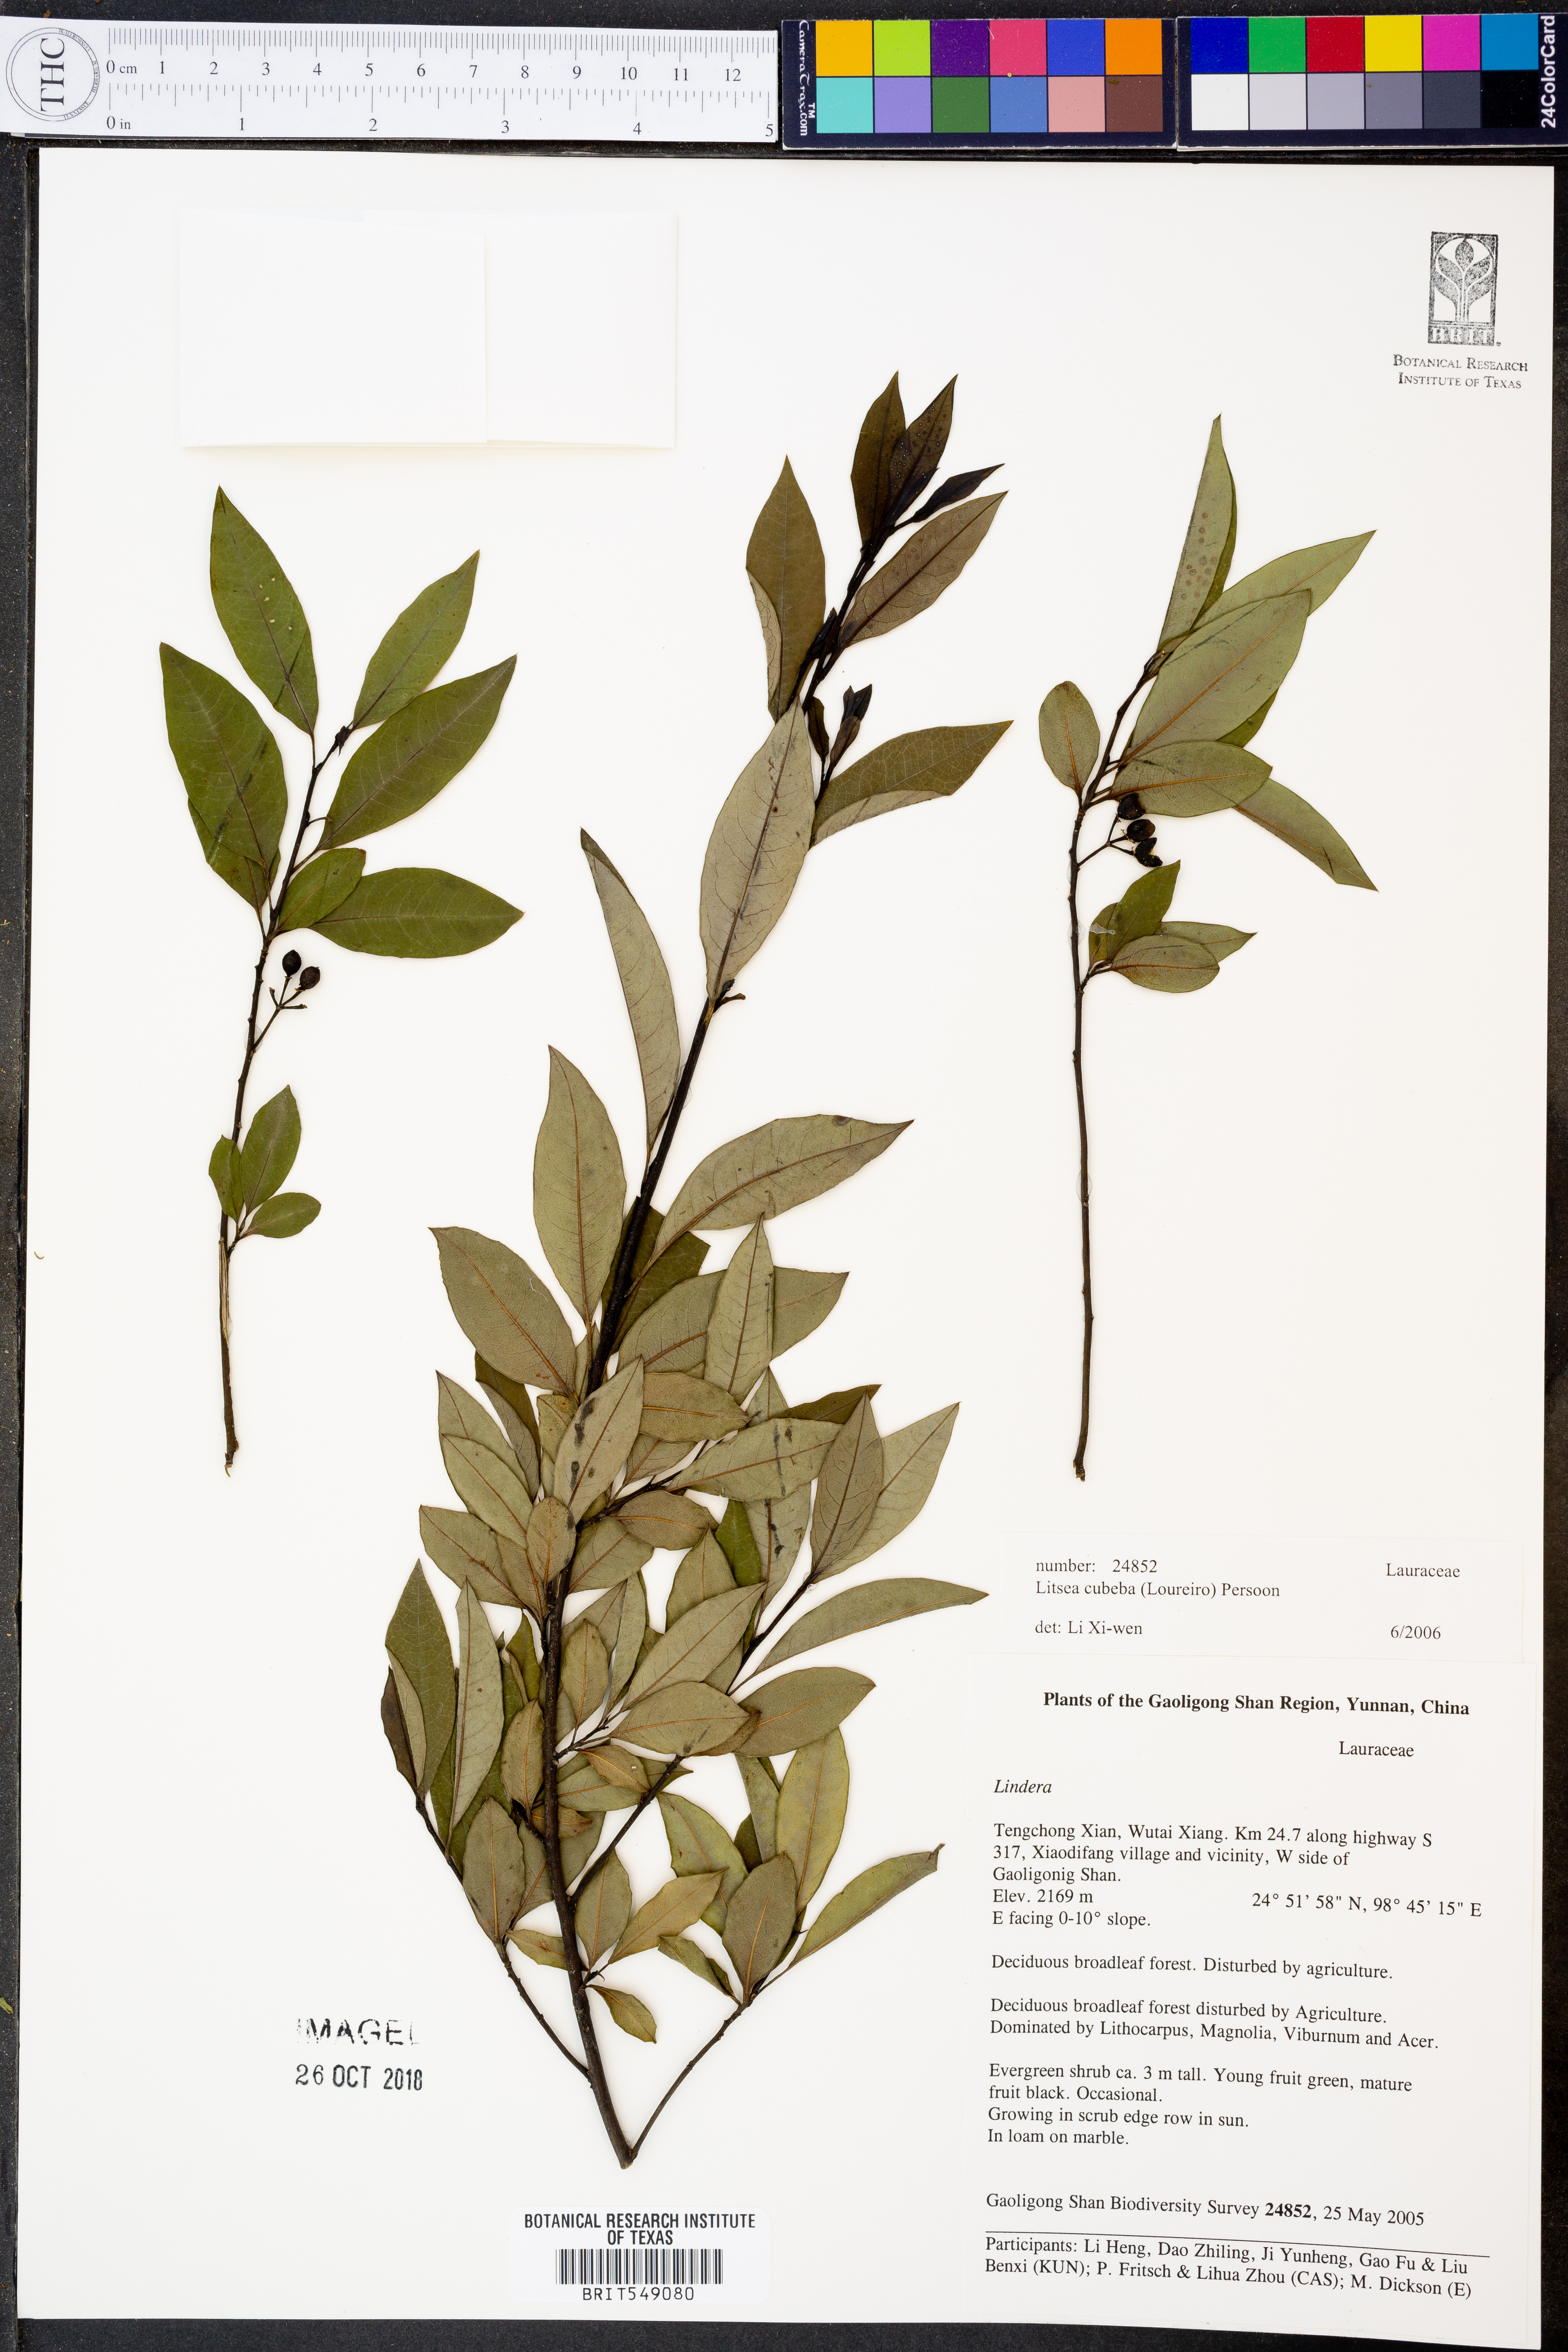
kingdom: Plantae
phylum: Tracheophyta
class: Magnoliopsida
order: Laurales
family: Lauraceae
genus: Litsea
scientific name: Litsea cubeba
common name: Mountain-pepper
